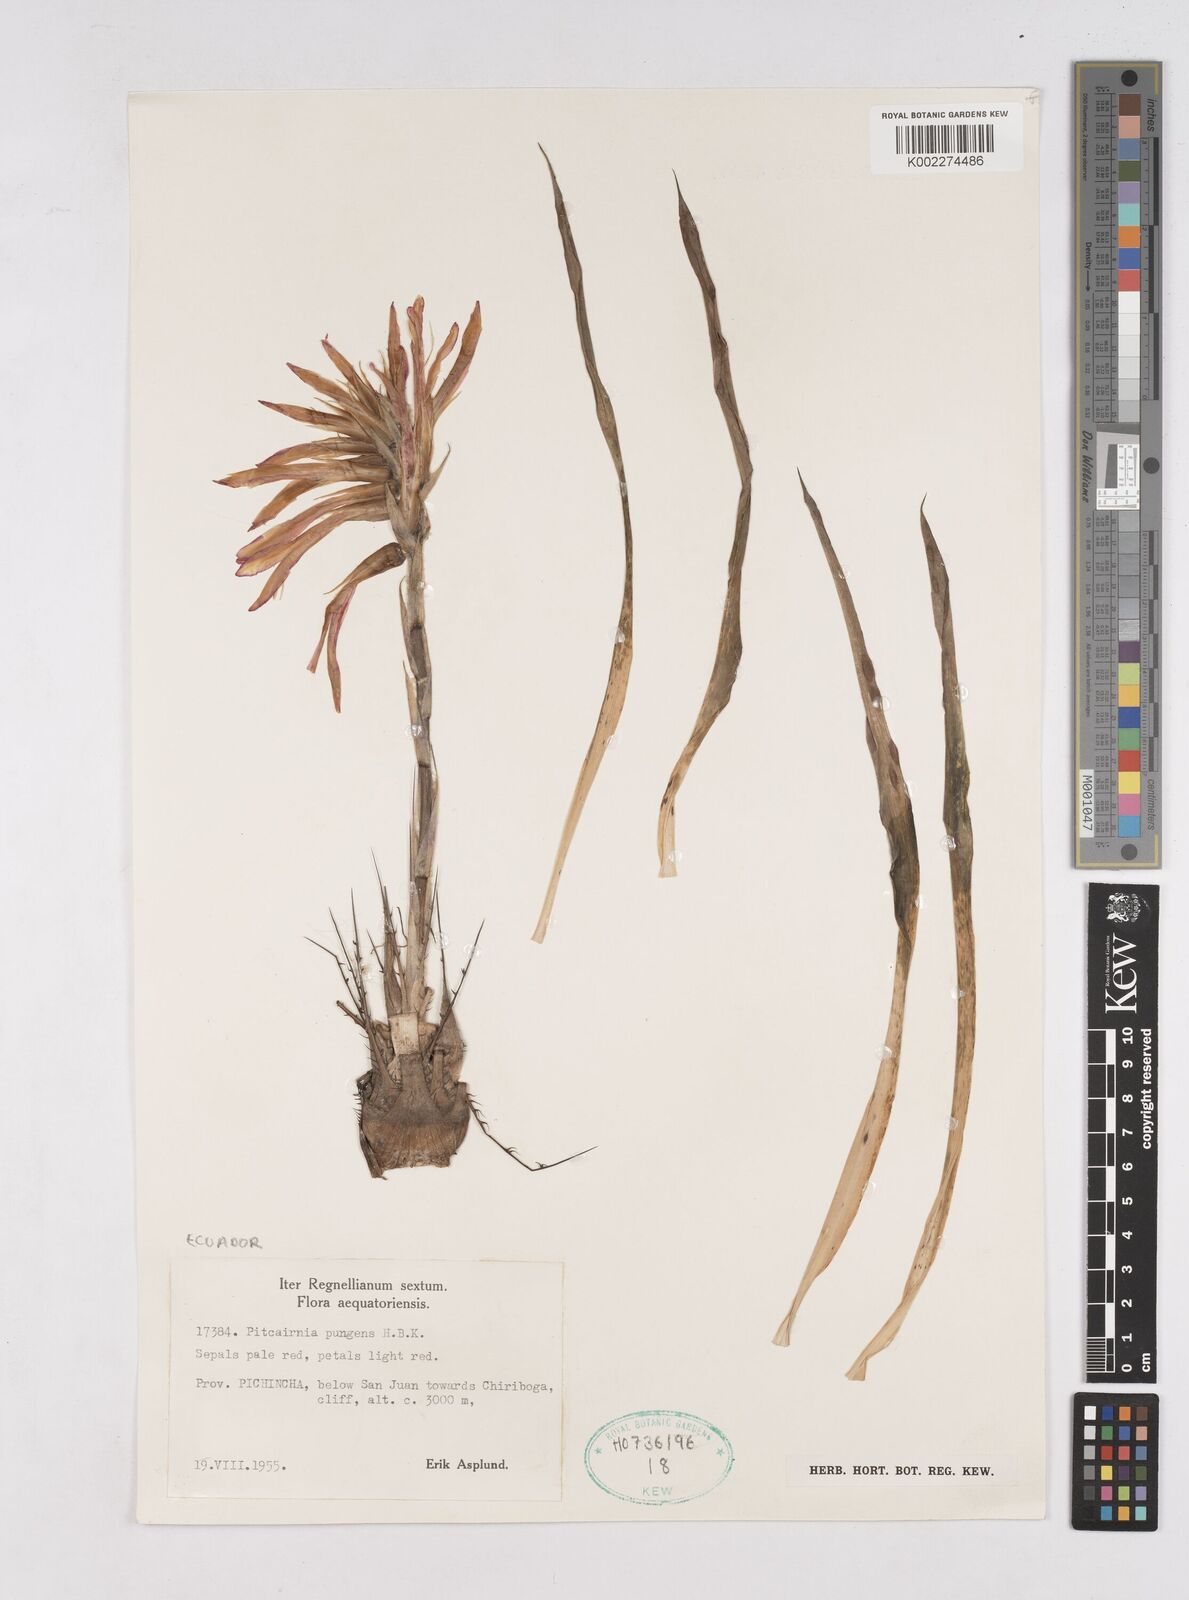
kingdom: Plantae
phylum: Tracheophyta
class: Liliopsida
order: Poales
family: Bromeliaceae
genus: Pitcairnia
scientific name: Pitcairnia pungens
